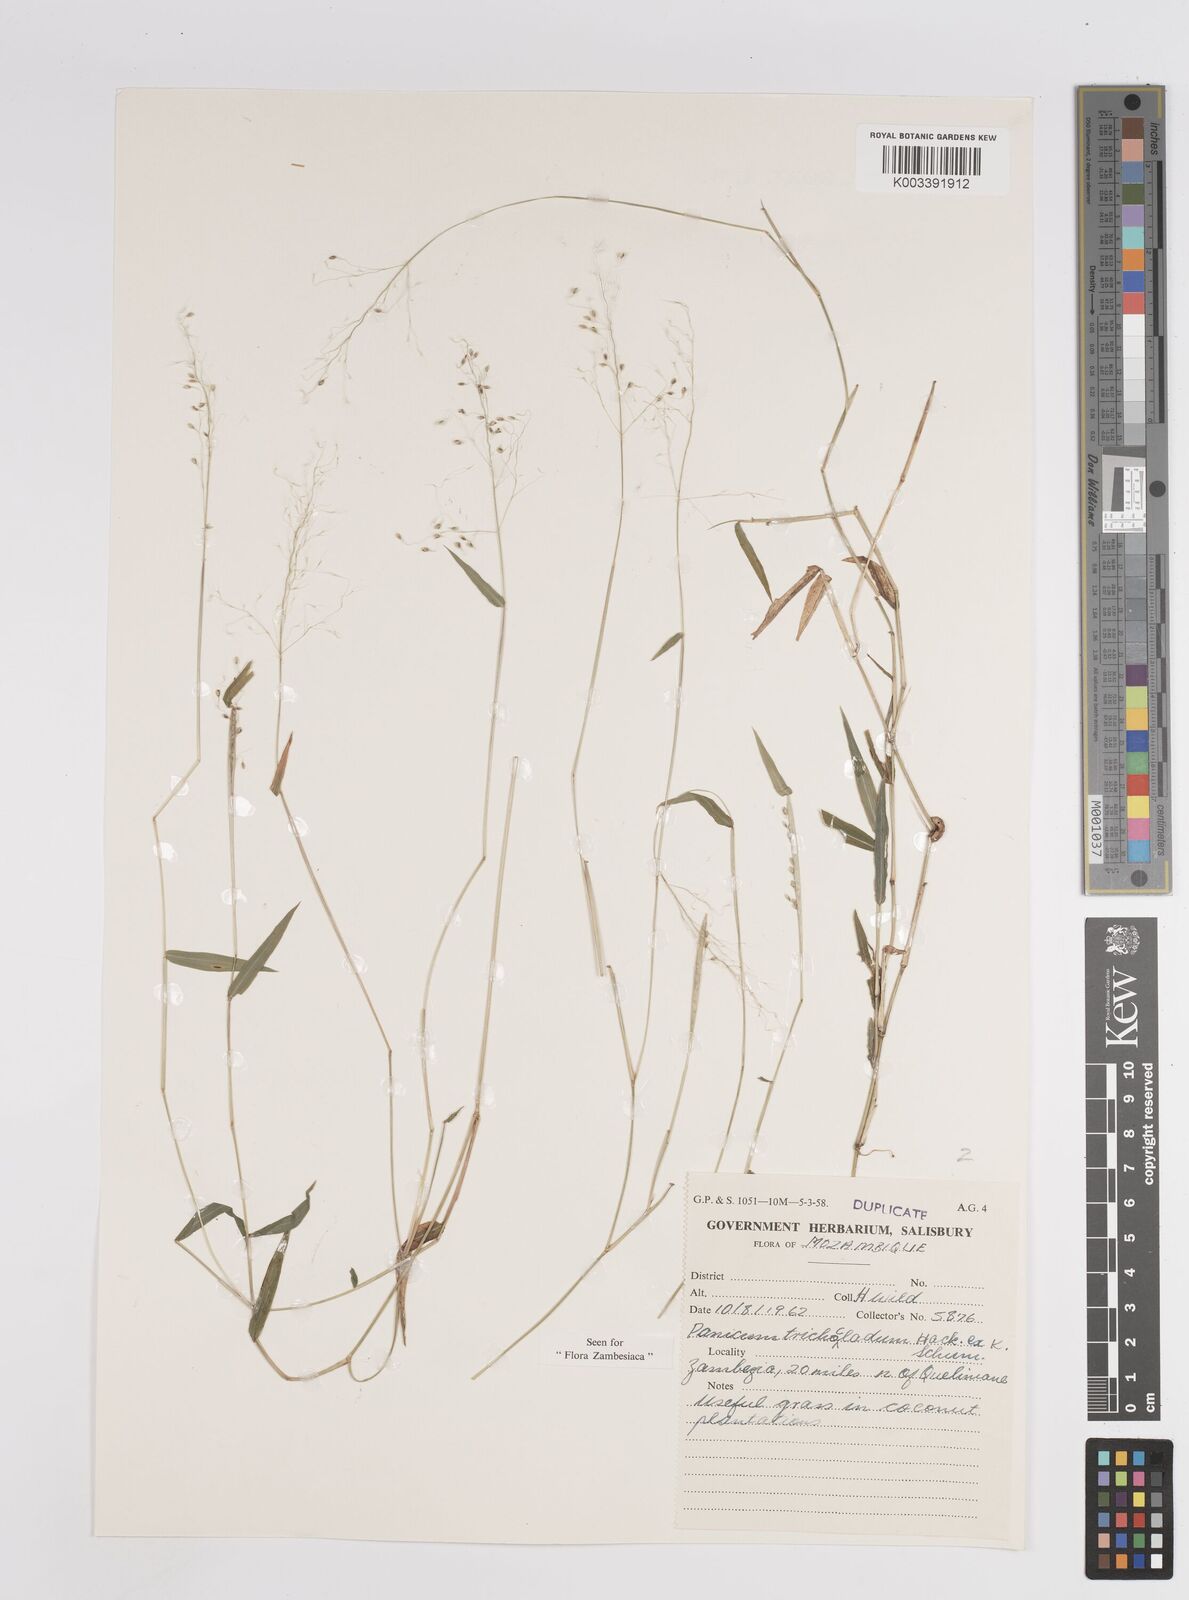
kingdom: Plantae
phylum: Tracheophyta
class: Liliopsida
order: Poales
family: Poaceae
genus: Panicum
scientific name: Panicum trichocladum
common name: Donkey grass
